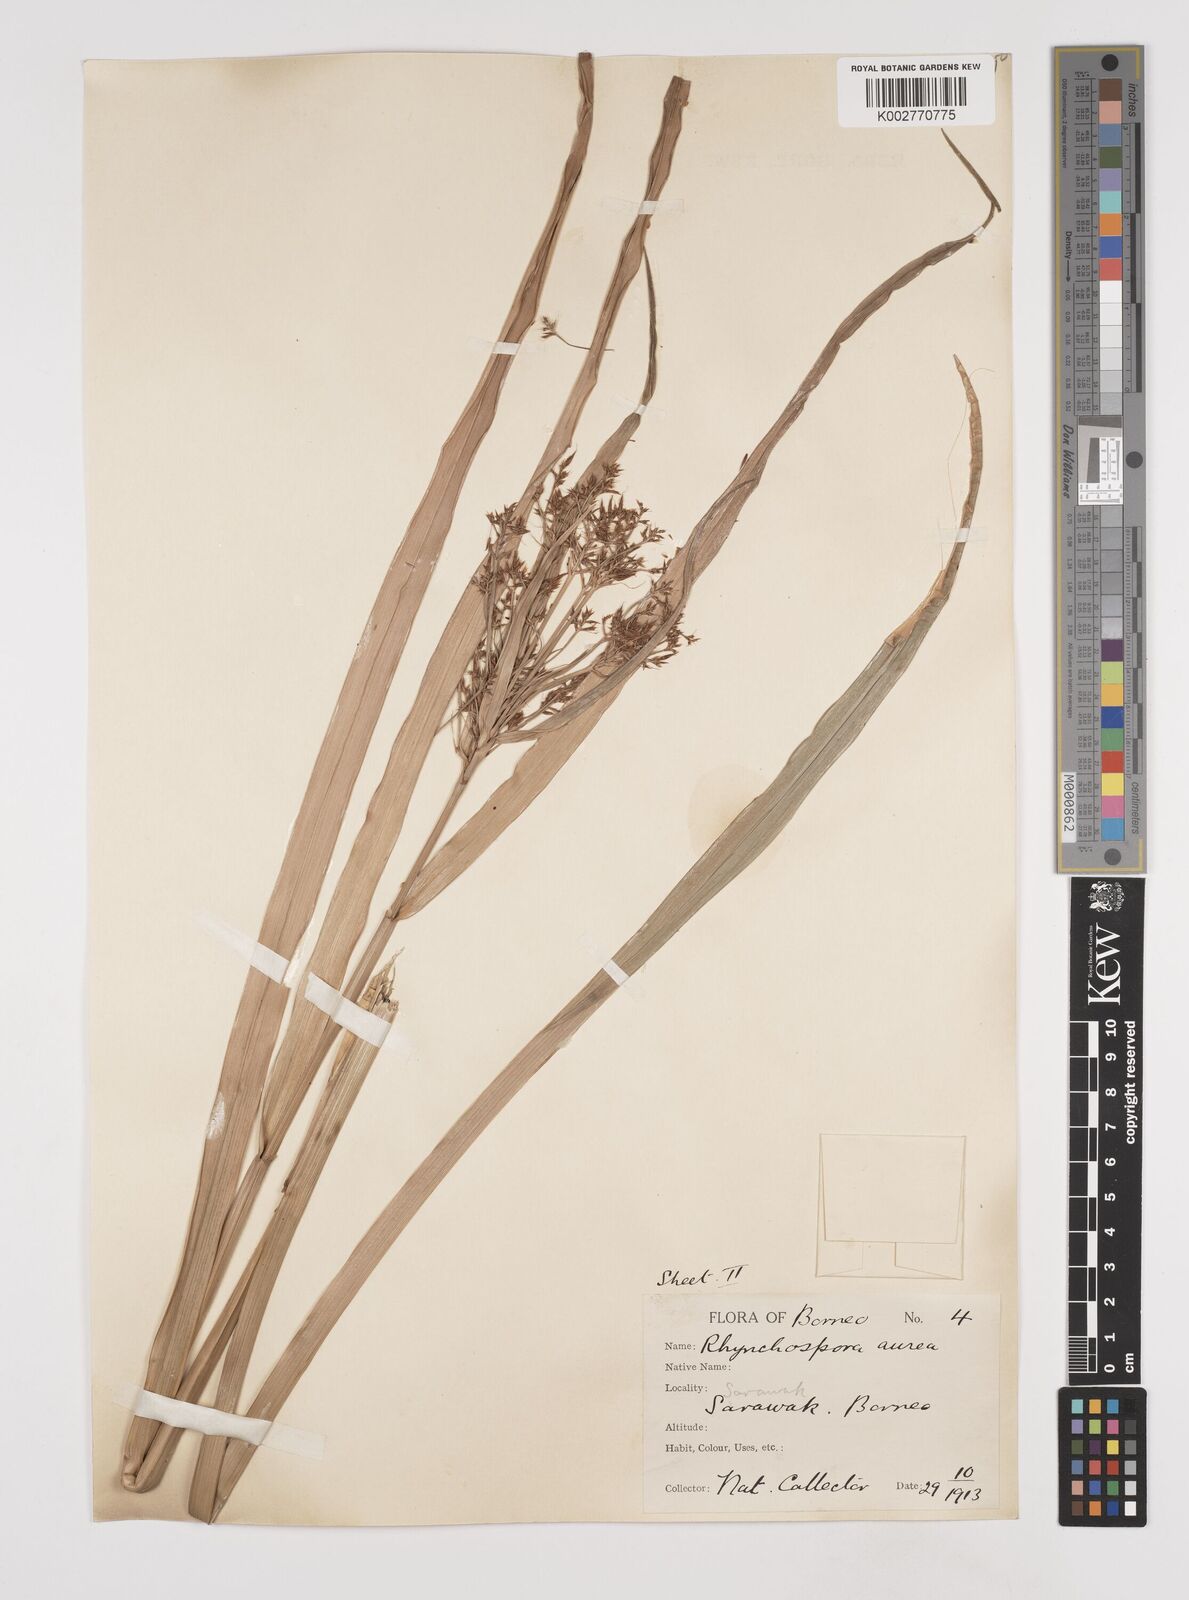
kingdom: Plantae
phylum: Tracheophyta
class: Liliopsida
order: Poales
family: Cyperaceae
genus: Rhynchospora
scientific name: Rhynchospora corymbosa
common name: Golden beak sedge
